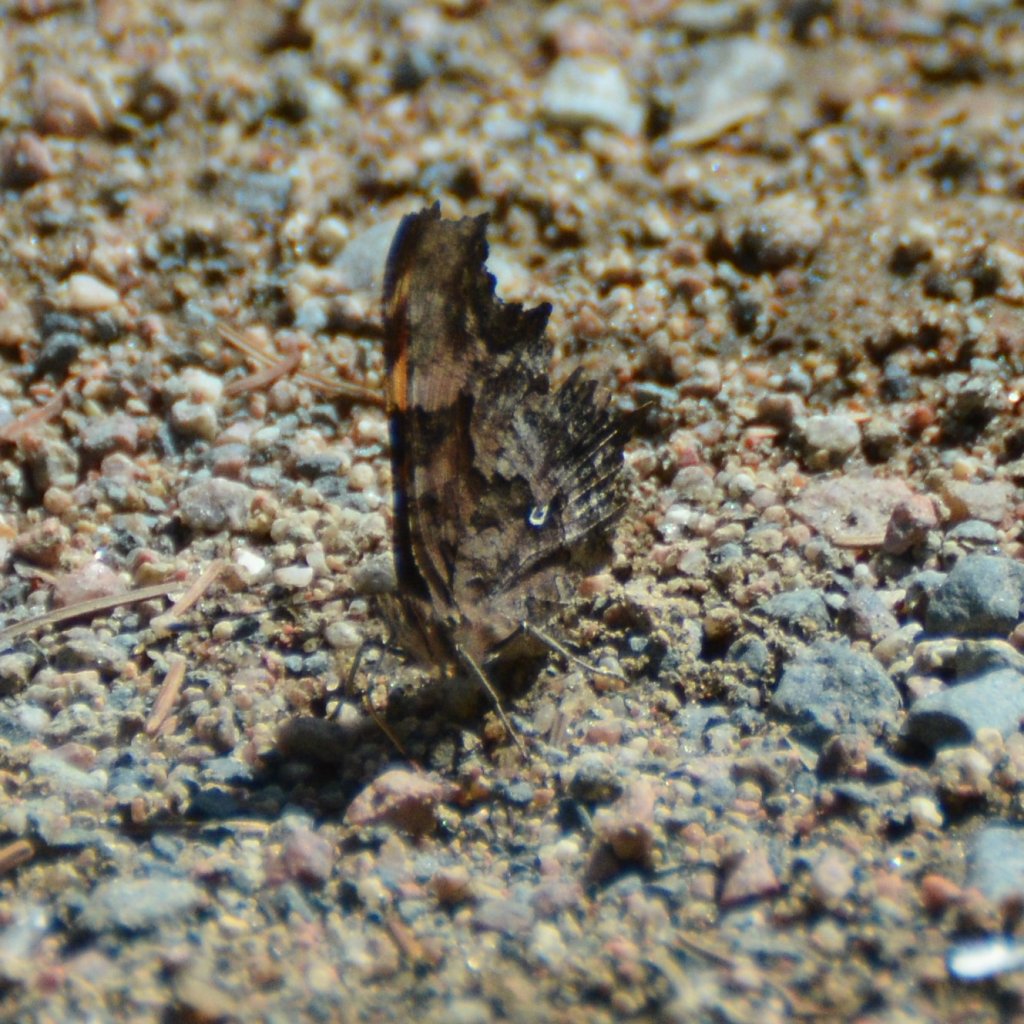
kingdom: Animalia
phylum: Arthropoda
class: Insecta
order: Lepidoptera
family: Nymphalidae
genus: Polygonia
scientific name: Polygonia faunus
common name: Green Comma
